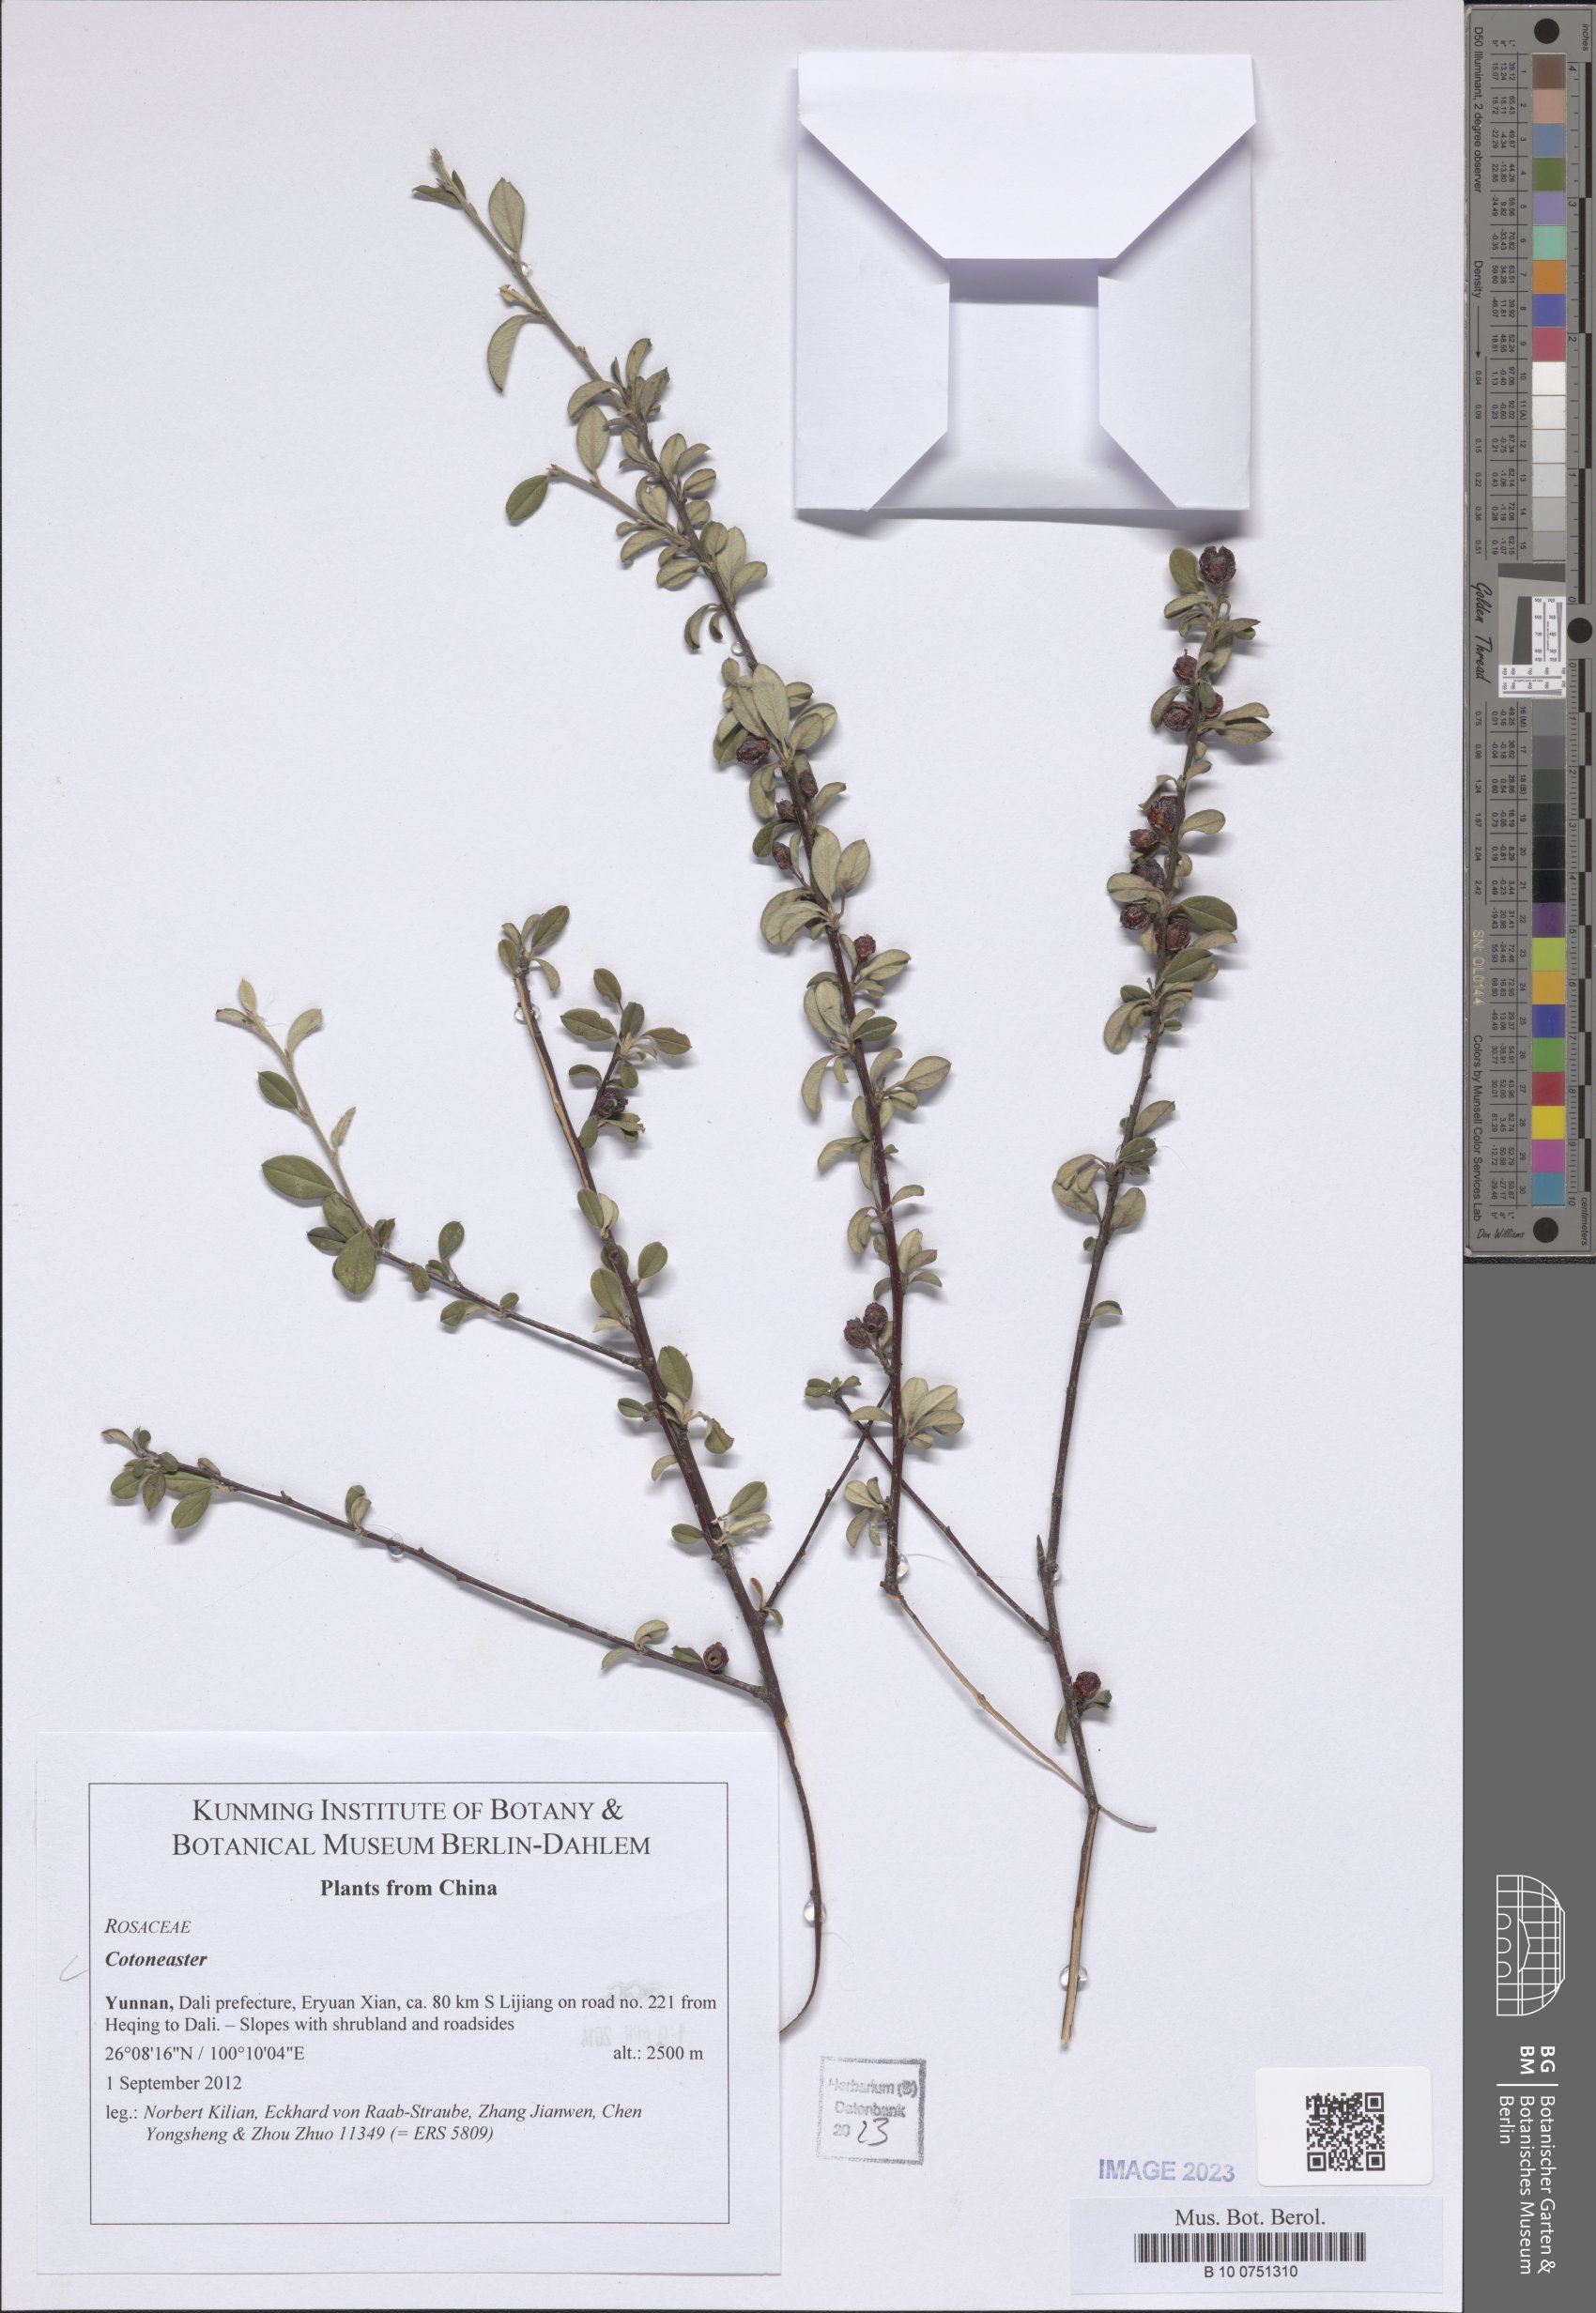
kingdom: Plantae
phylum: Tracheophyta
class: Magnoliopsida
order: Rosales
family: Rosaceae
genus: Cotoneaster
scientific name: Cotoneaster
